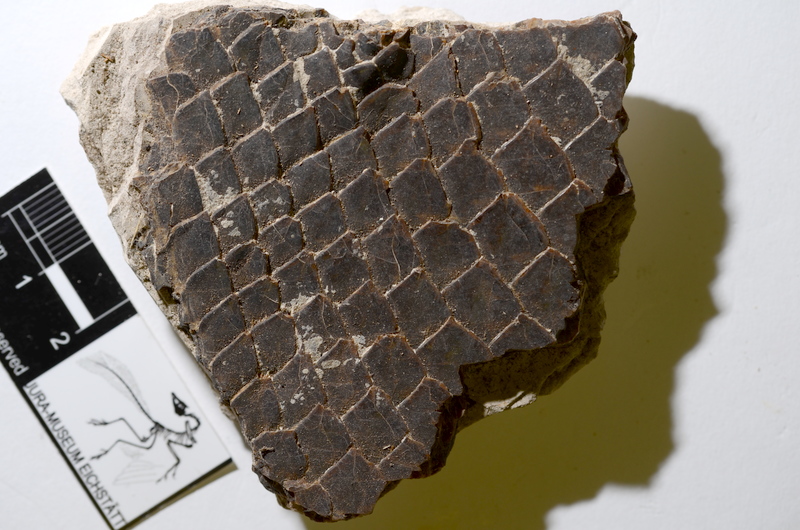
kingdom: Animalia
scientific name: Animalia
